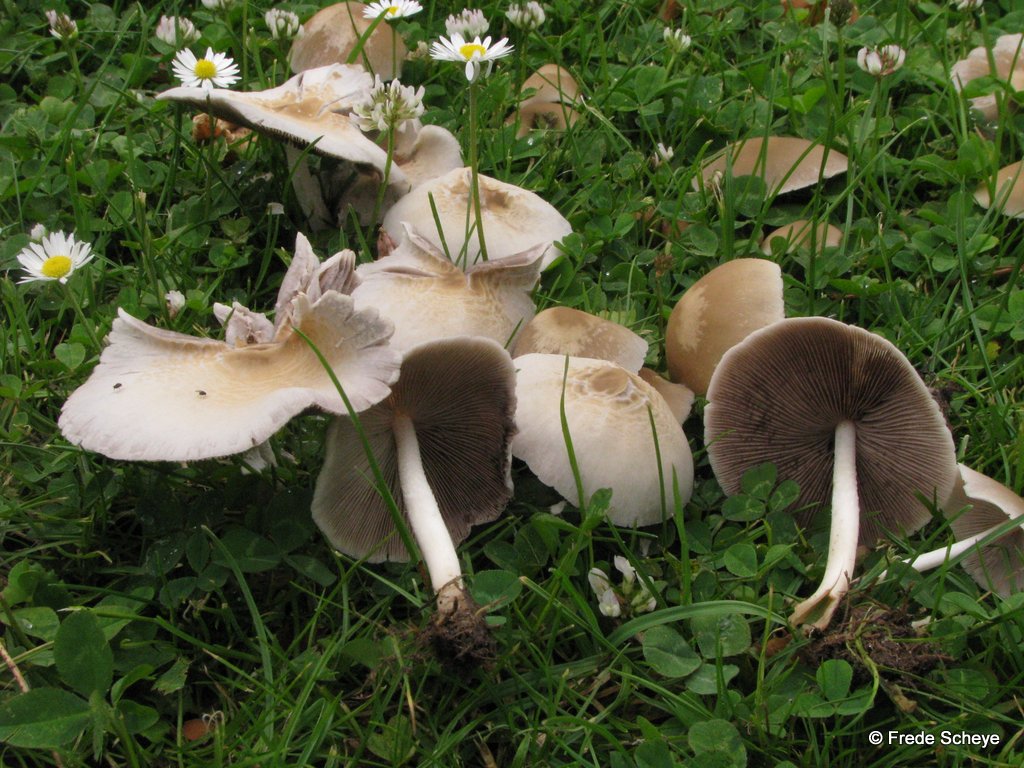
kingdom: Fungi
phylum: Basidiomycota
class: Agaricomycetes
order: Agaricales
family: Psathyrellaceae
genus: Candolleomyces
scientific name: Candolleomyces candolleanus
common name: Candolles mørkhat
